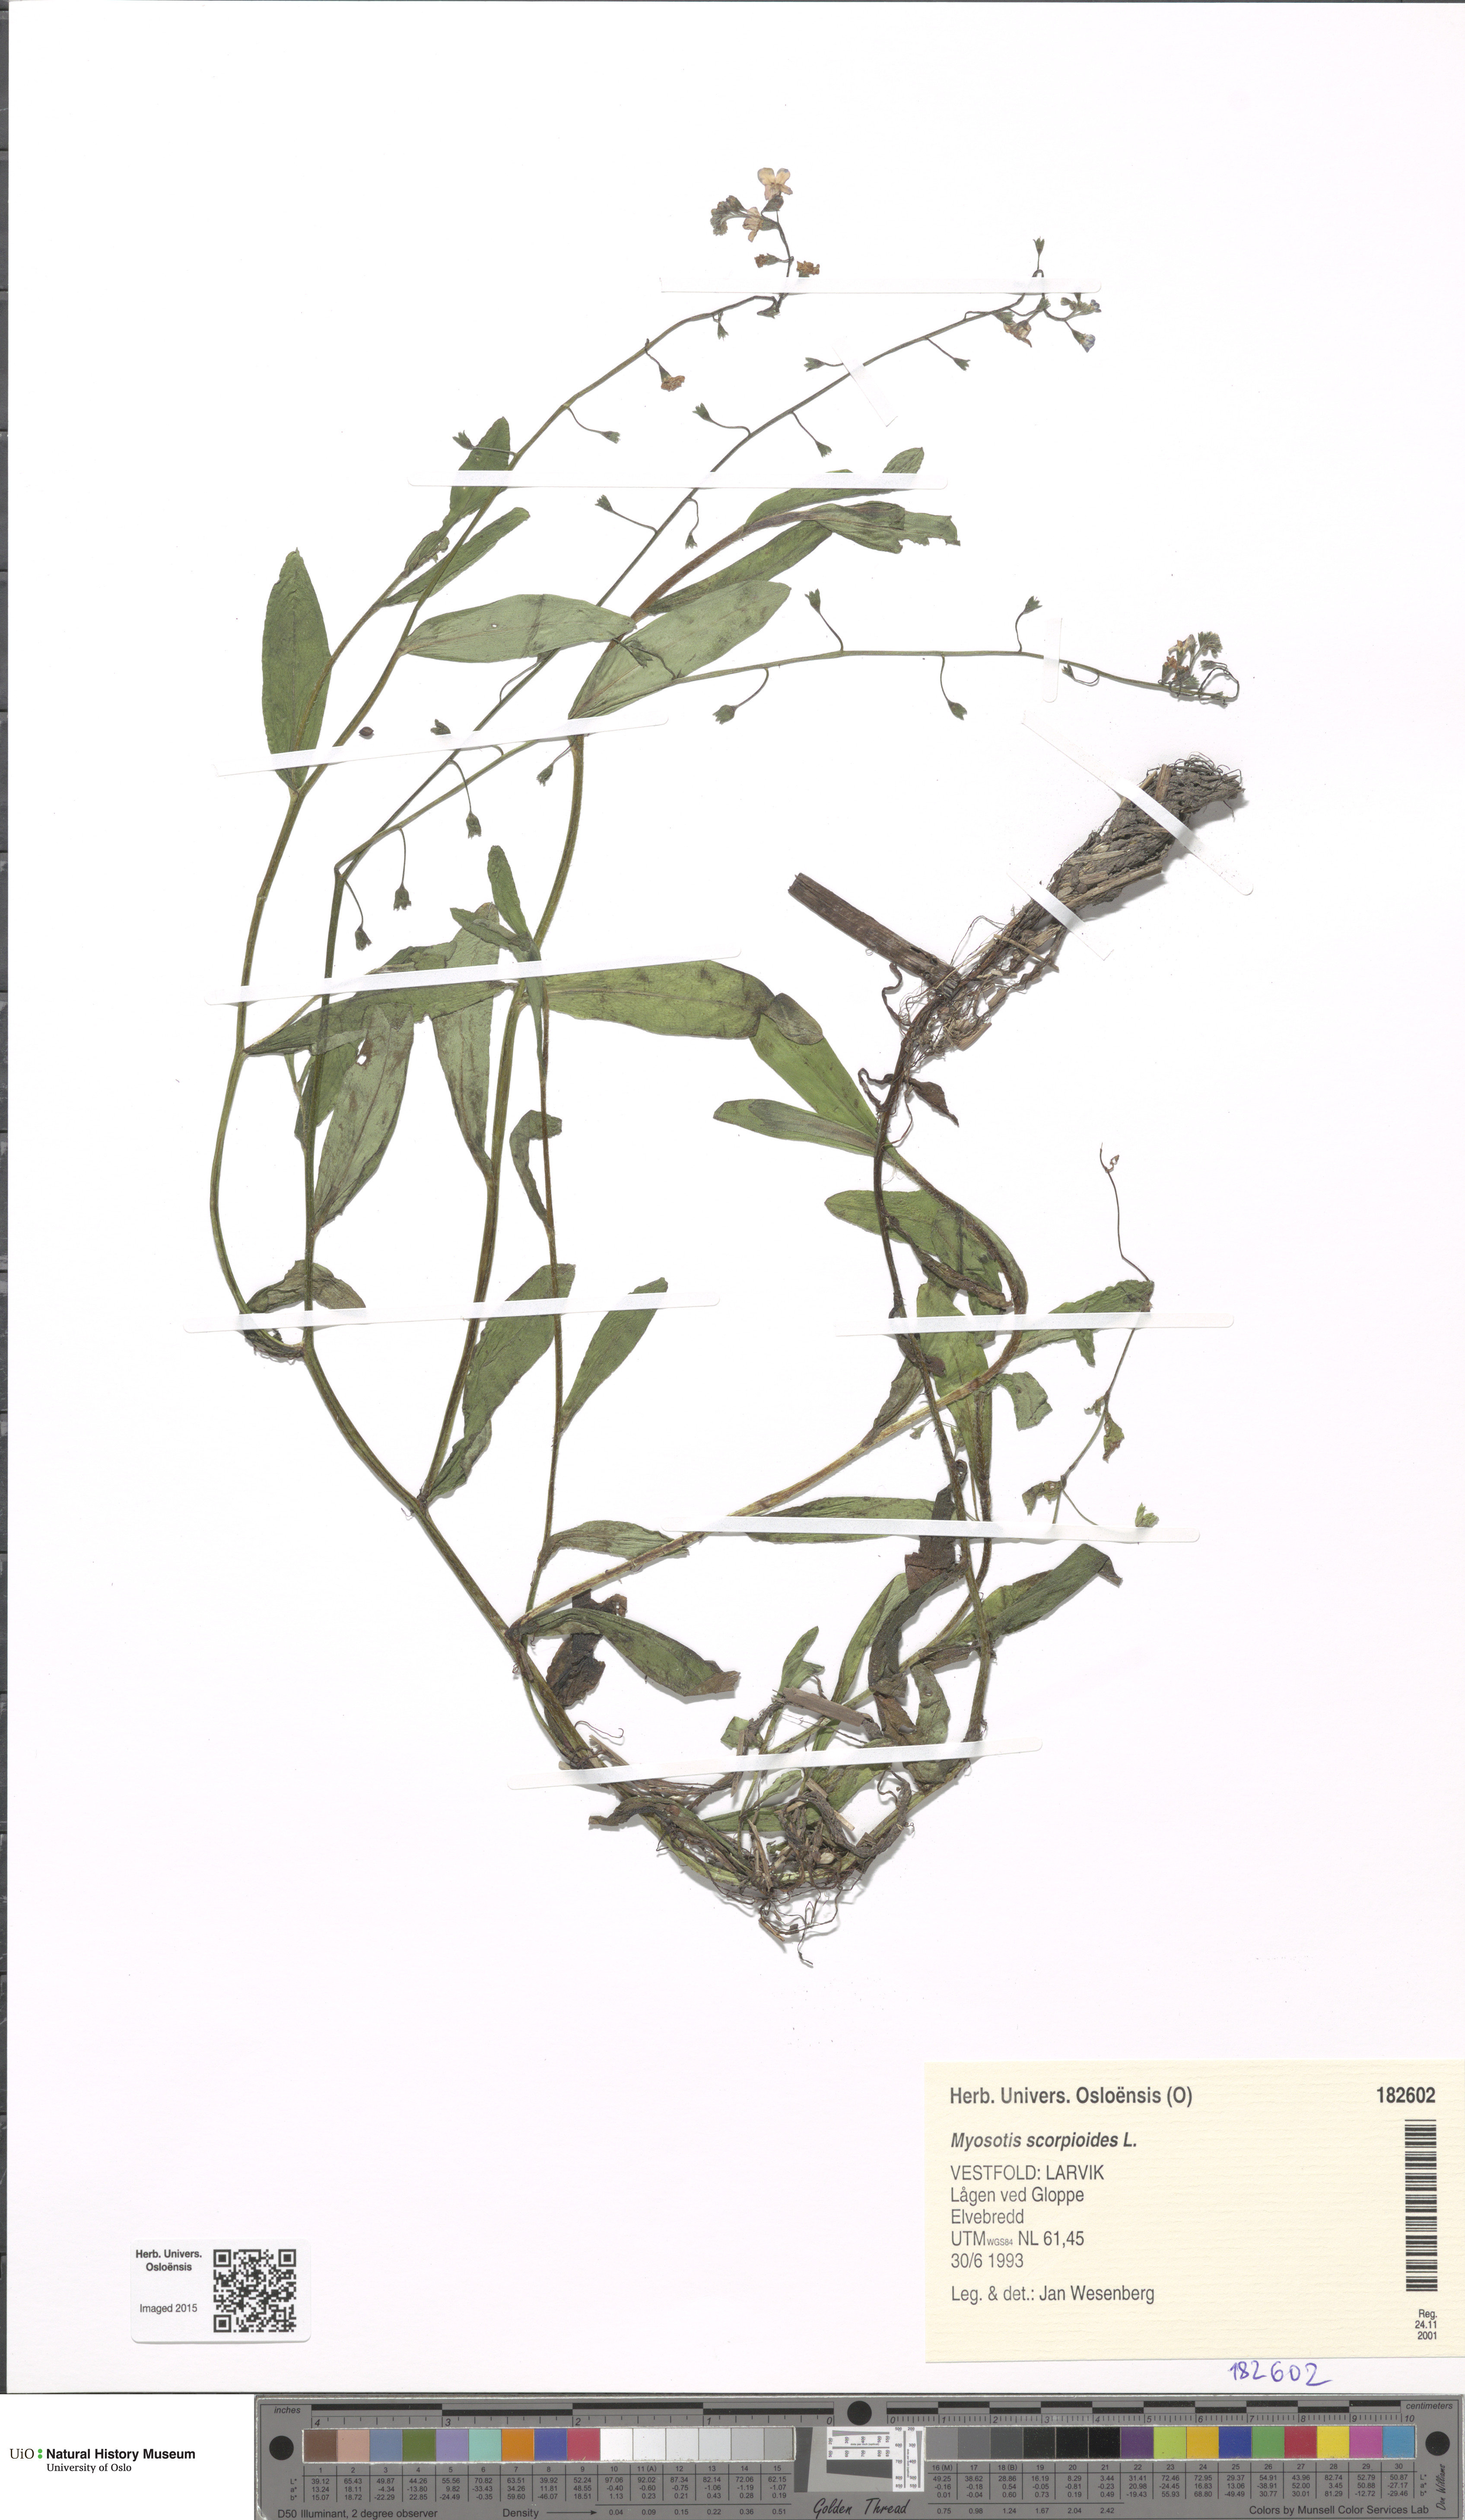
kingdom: Plantae
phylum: Tracheophyta
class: Magnoliopsida
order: Boraginales
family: Boraginaceae
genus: Myosotis
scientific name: Myosotis scorpioides
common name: Water forget-me-not
